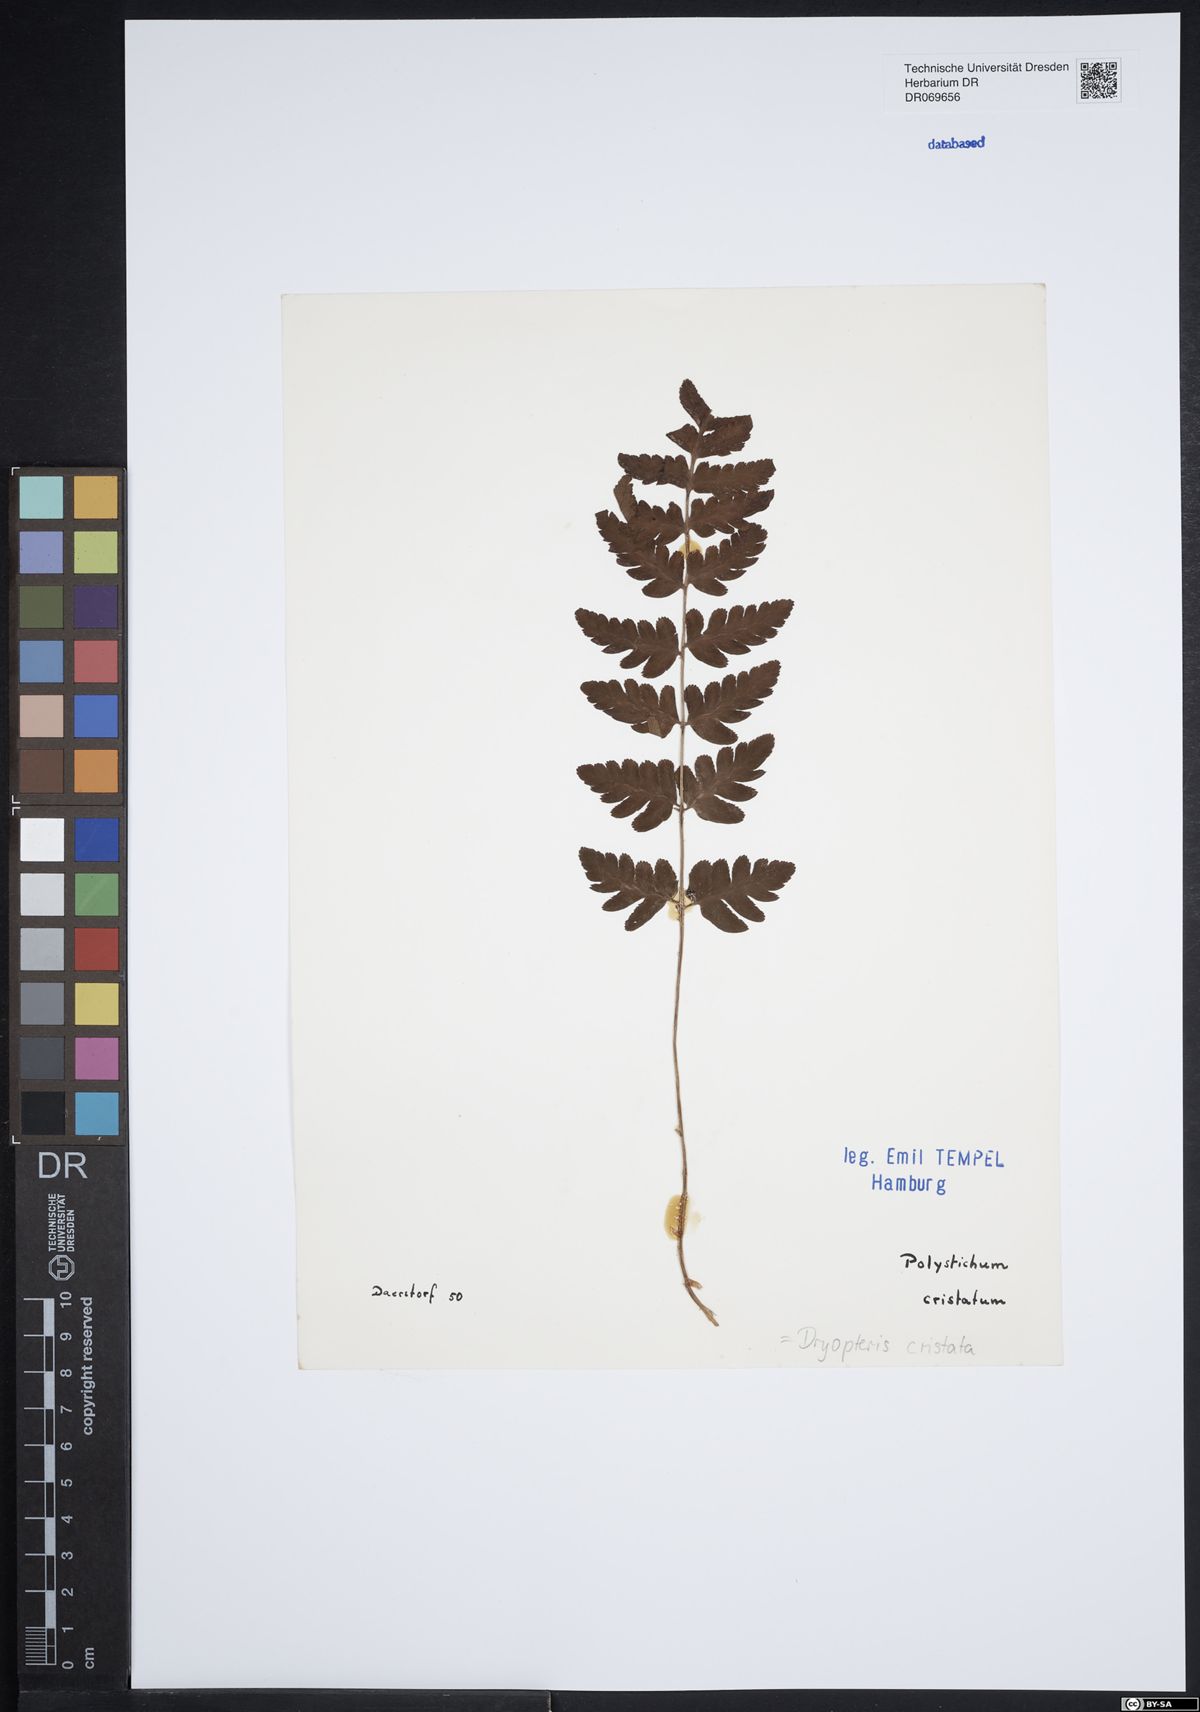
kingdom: Plantae
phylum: Tracheophyta
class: Polypodiopsida
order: Polypodiales
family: Dryopteridaceae
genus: Dryopteris
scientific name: Dryopteris cristata
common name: Crested wood fern
